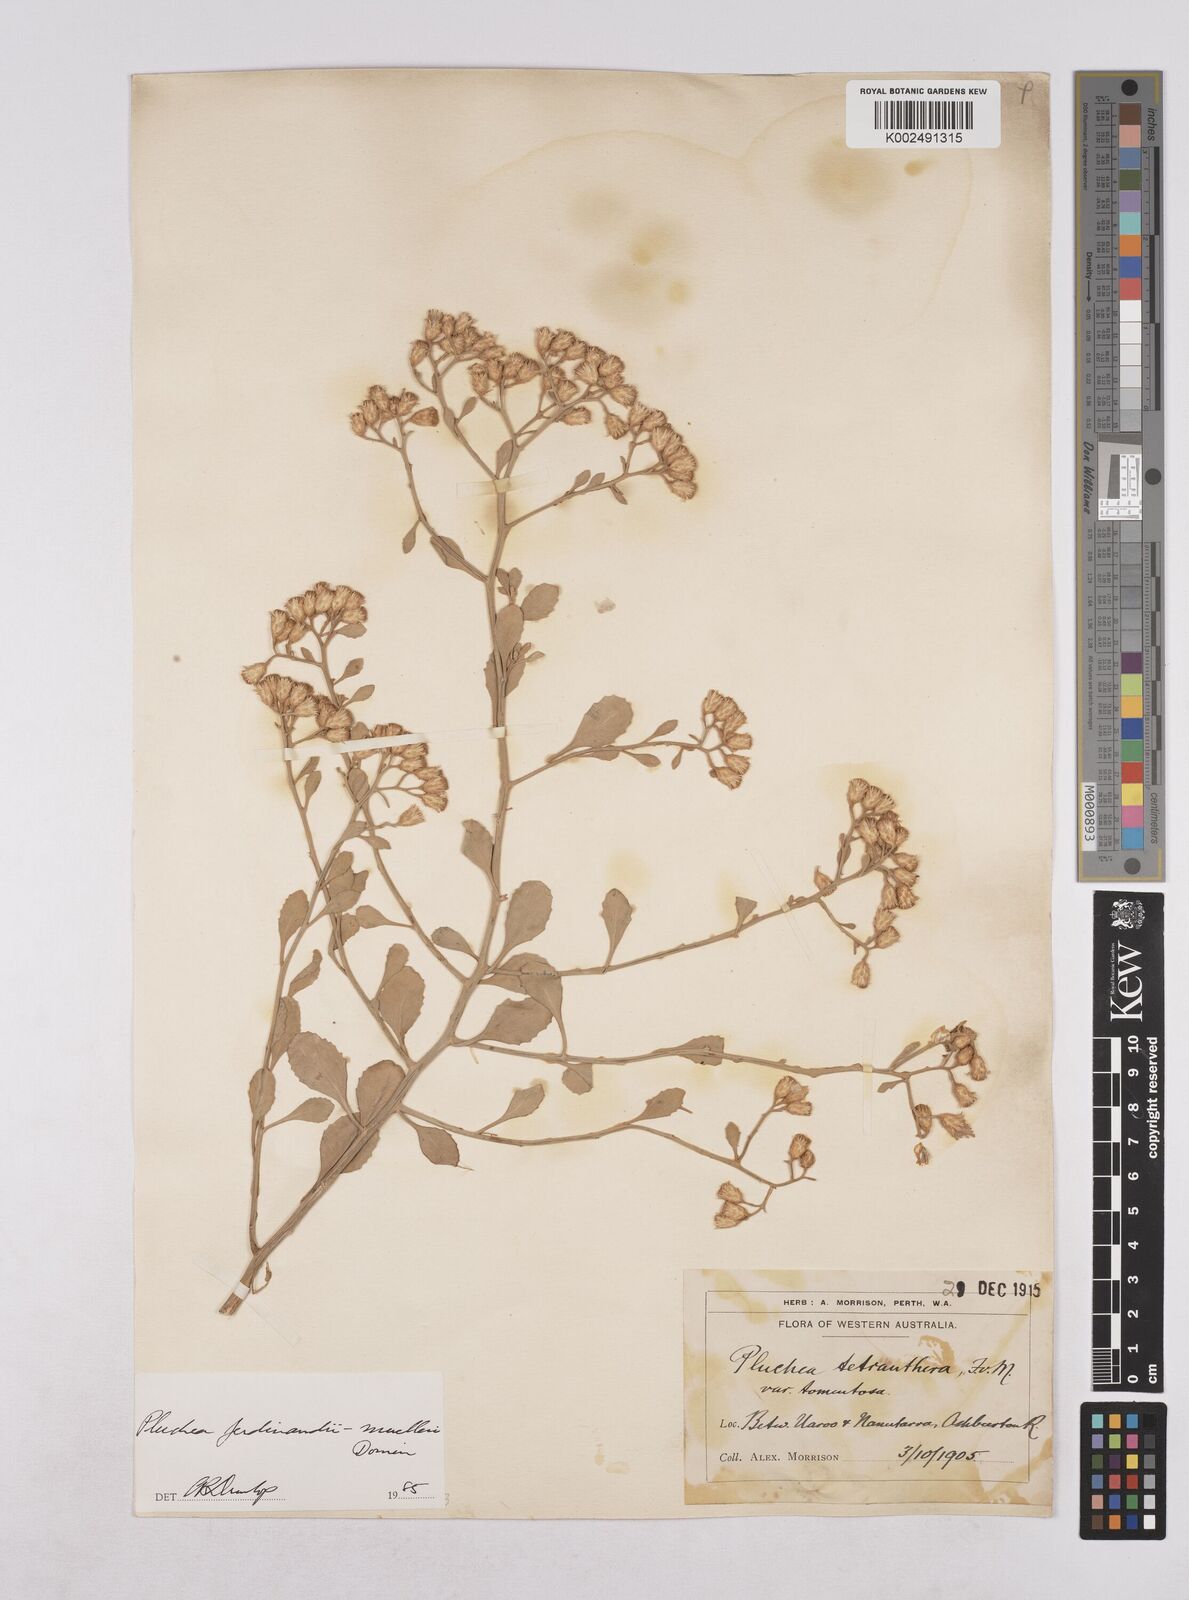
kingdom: Plantae
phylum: Tracheophyta
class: Magnoliopsida
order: Asterales
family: Asteraceae
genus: Pluchea
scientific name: Pluchea ferdinandi-muelleri
